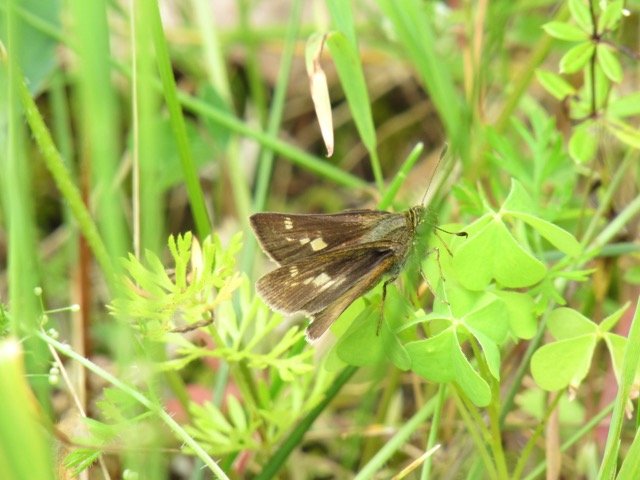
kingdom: Animalia
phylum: Arthropoda
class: Insecta
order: Lepidoptera
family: Hesperiidae
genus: Vernia
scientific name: Vernia verna
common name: Little Glassywing
